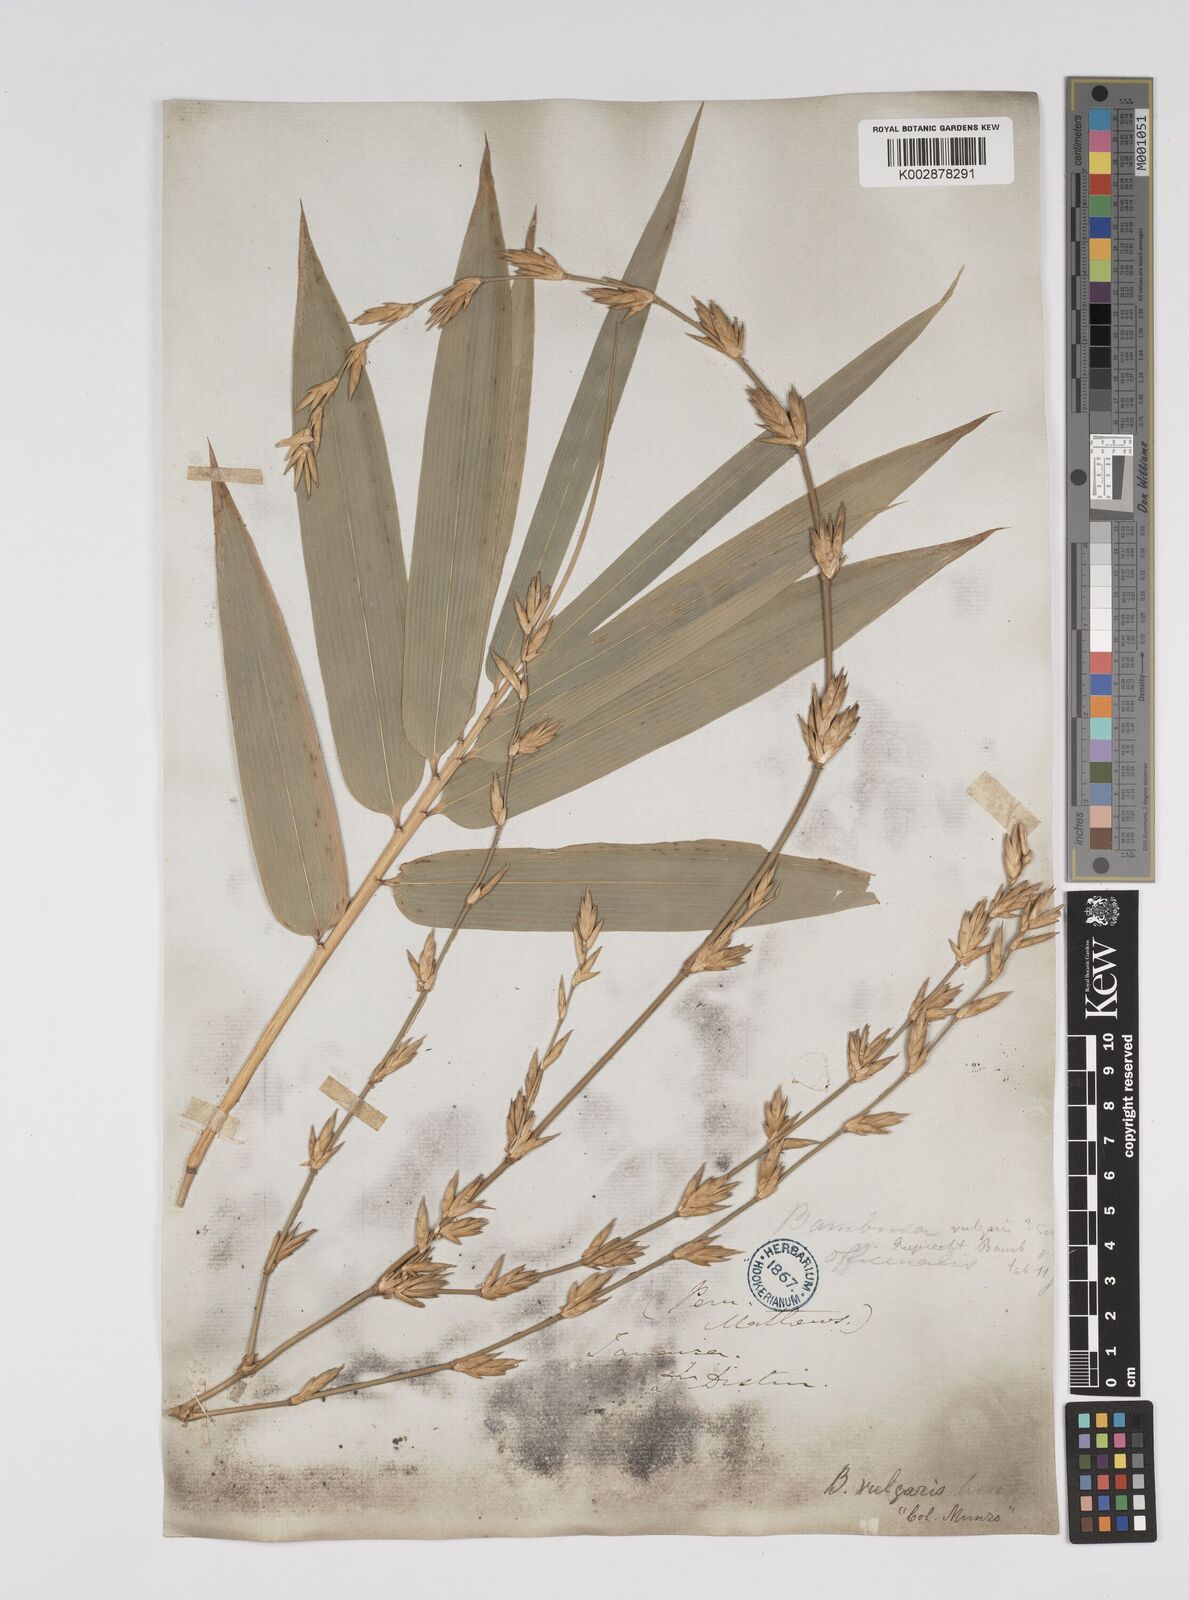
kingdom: Plantae
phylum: Tracheophyta
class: Liliopsida
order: Poales
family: Poaceae
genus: Bambusa
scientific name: Bambusa vulgaris
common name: Common bamboo
